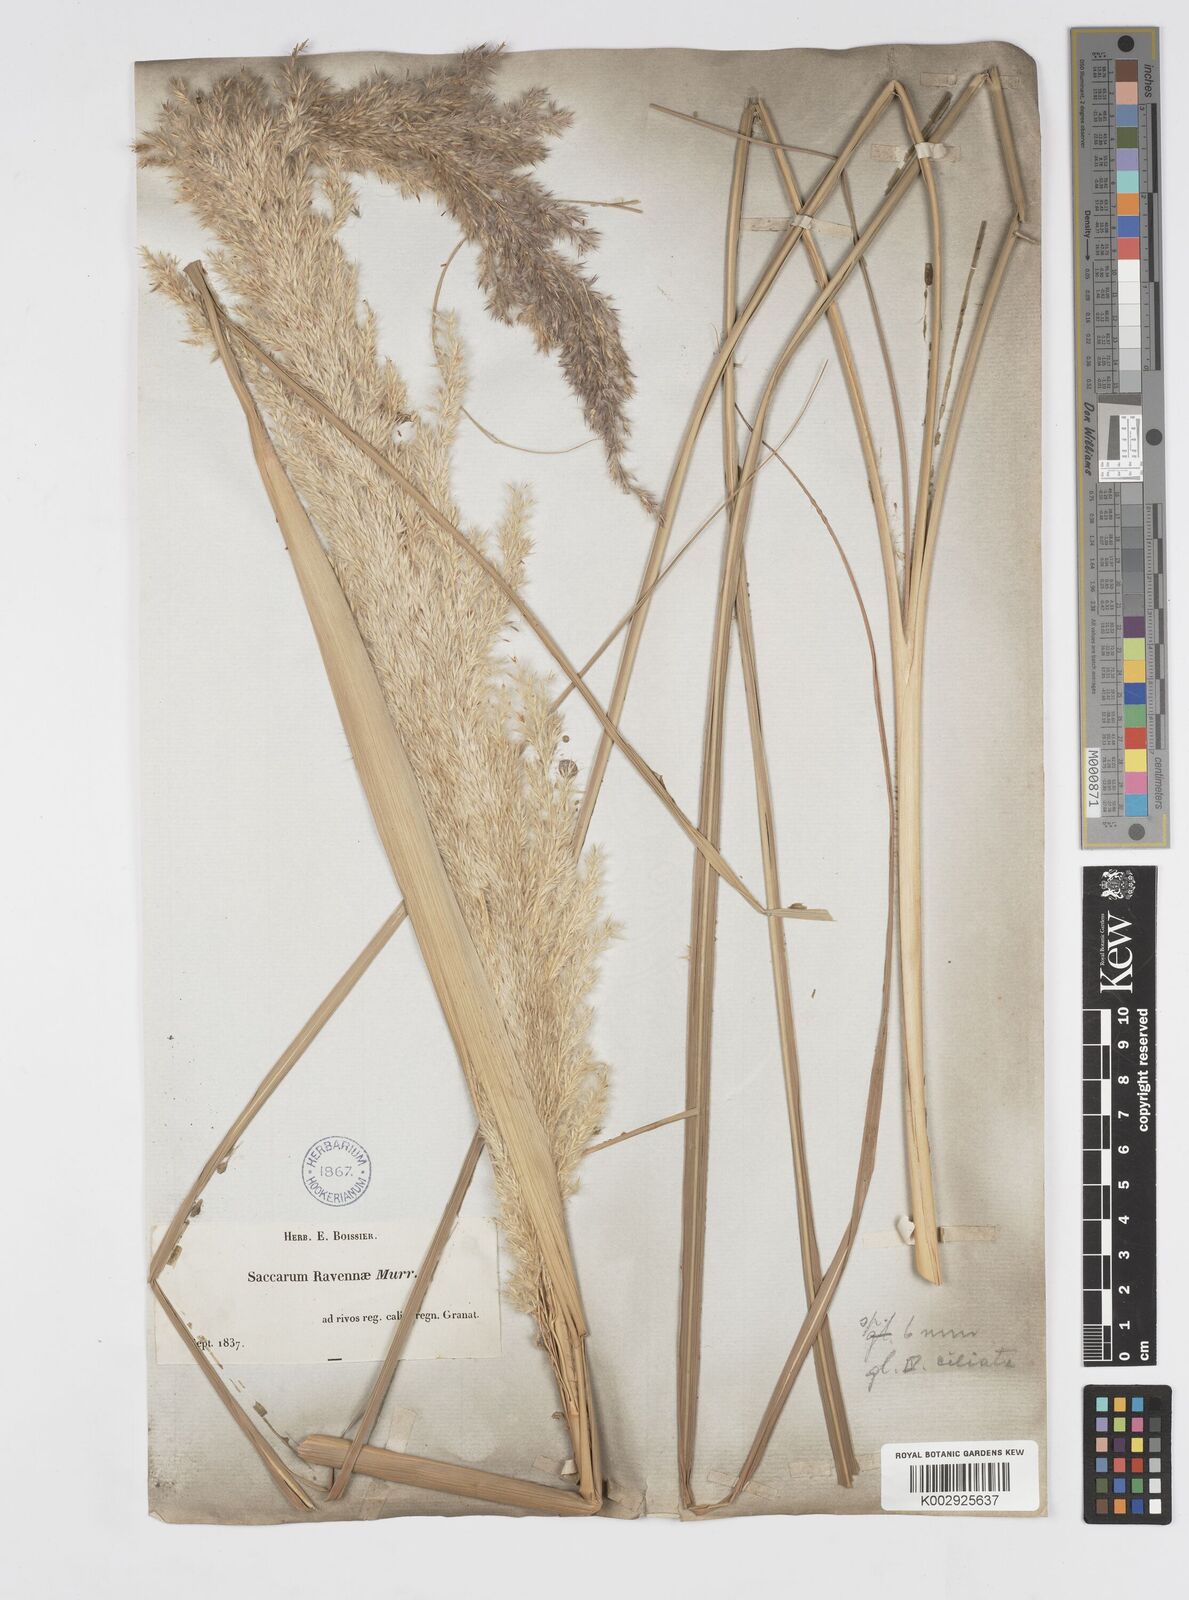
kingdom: Plantae
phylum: Tracheophyta
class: Liliopsida
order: Poales
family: Poaceae
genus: Tripidium
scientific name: Tripidium ravennae
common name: Ravenna grass
